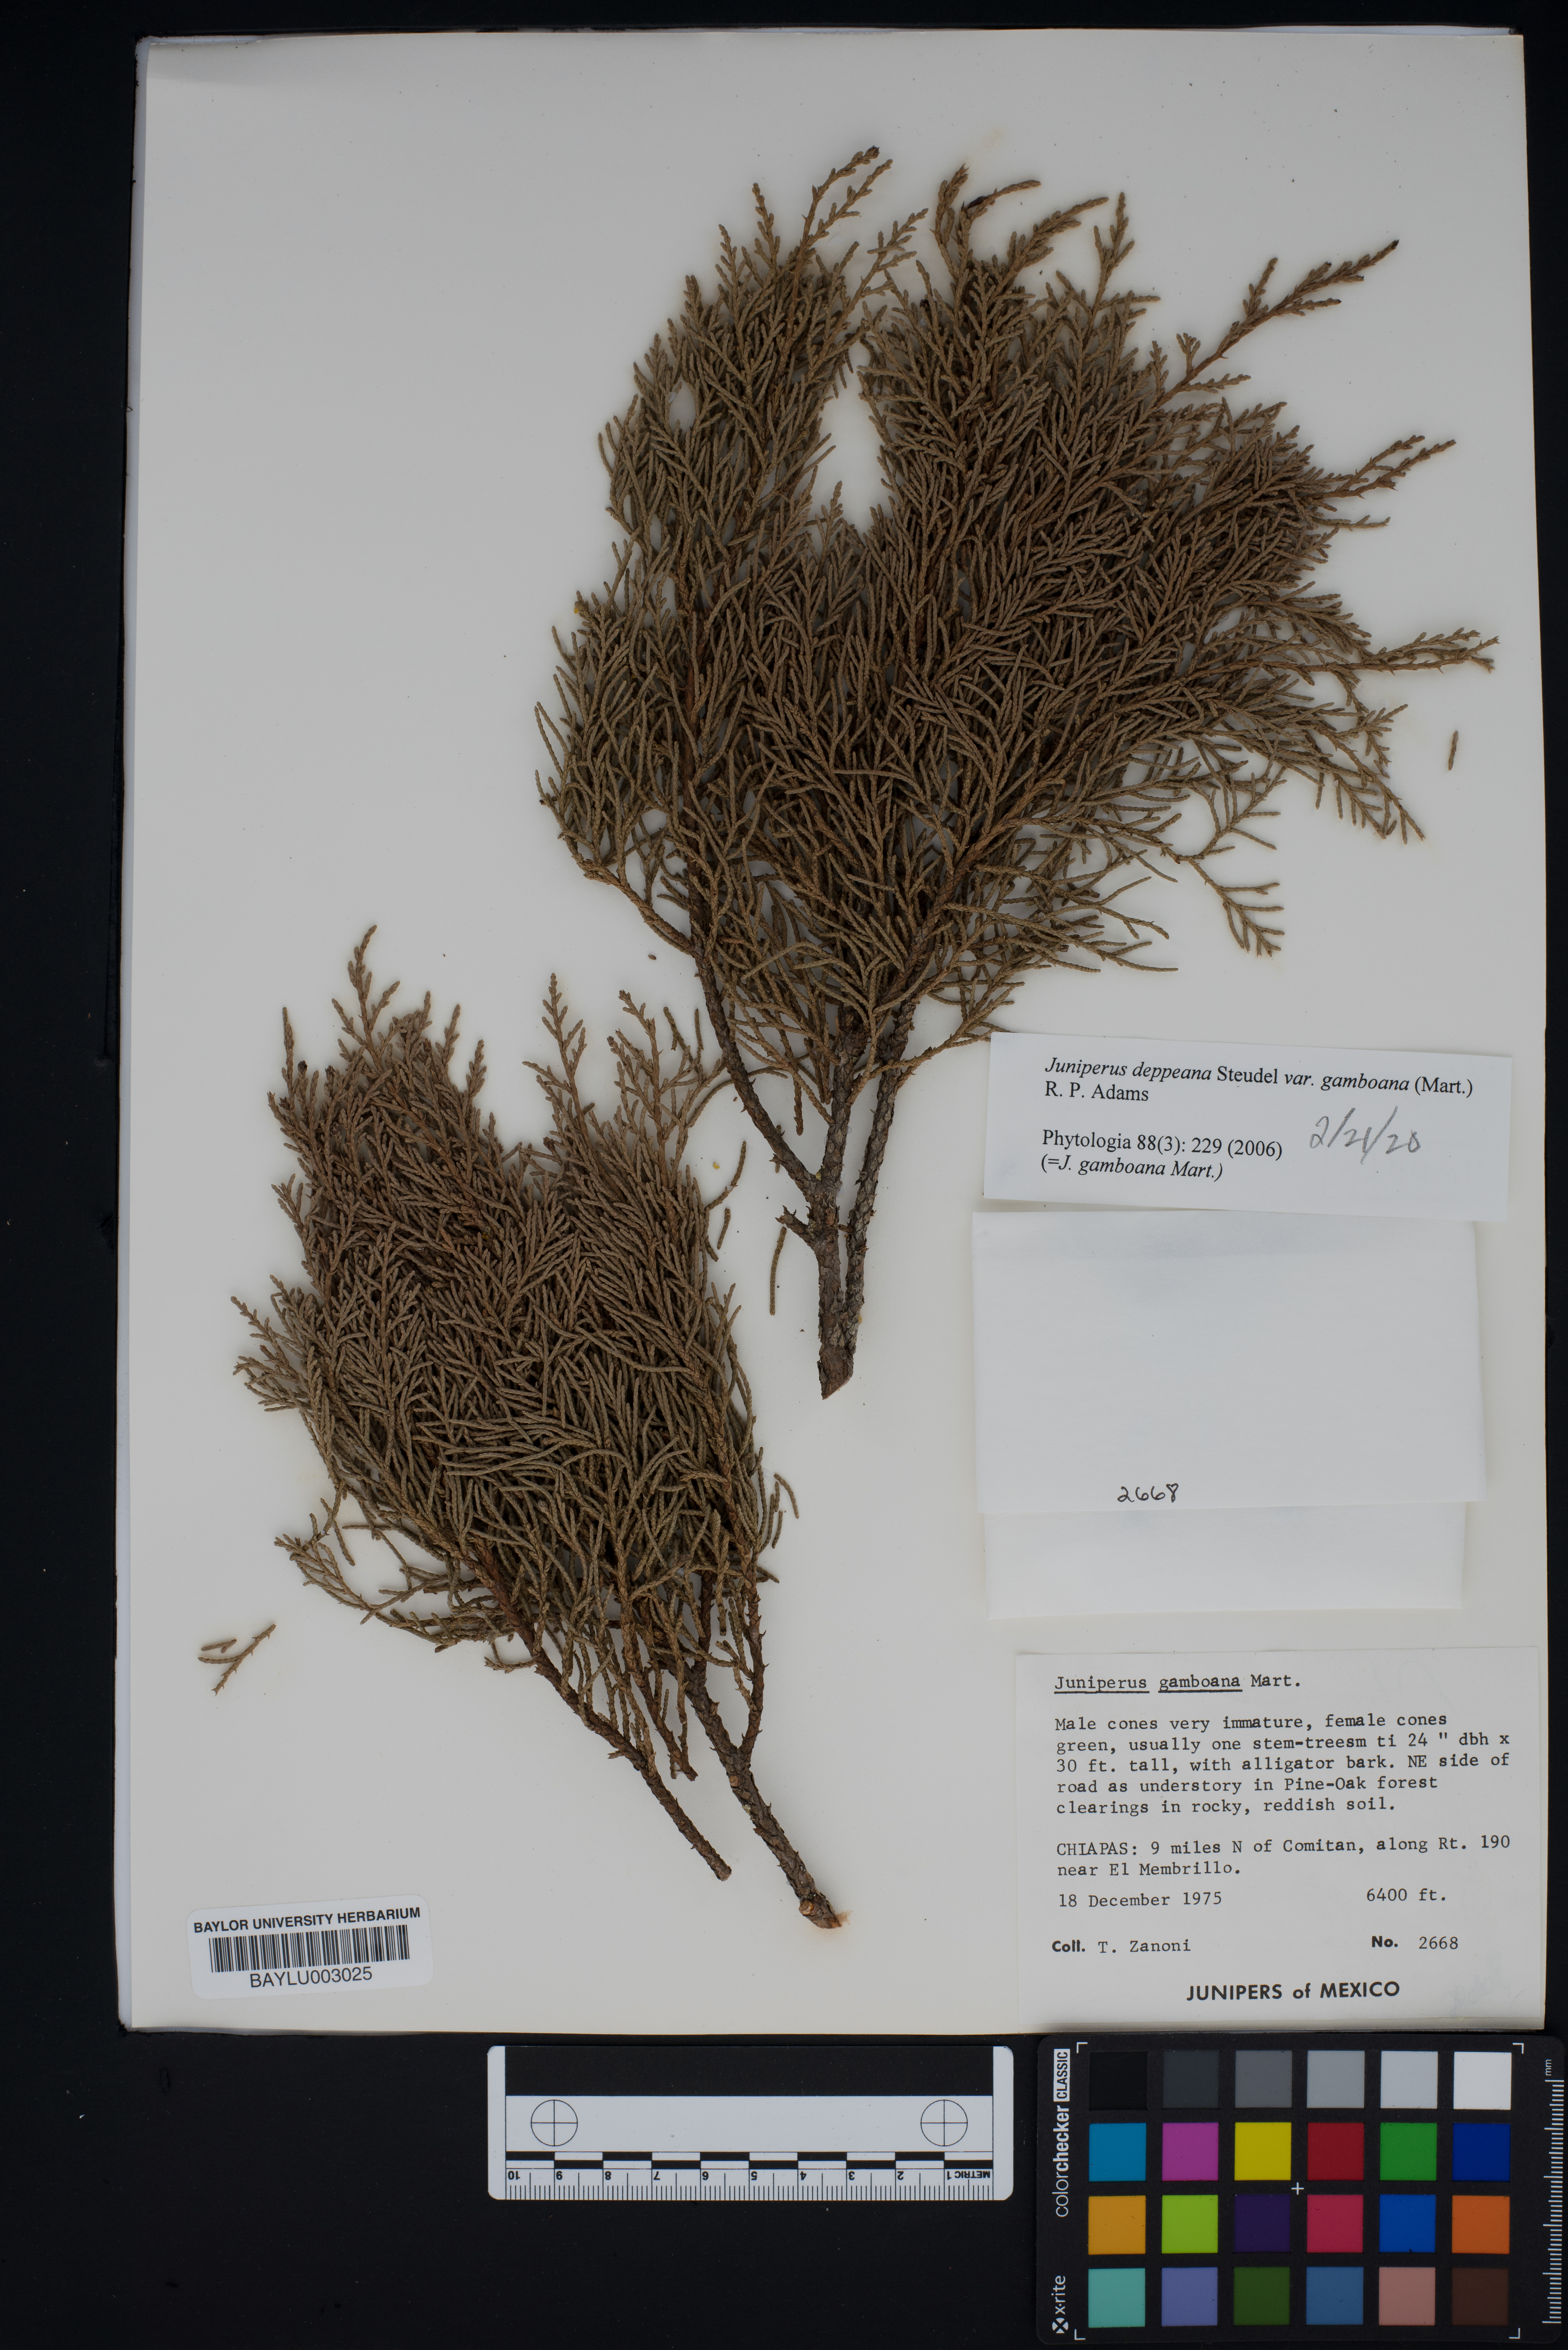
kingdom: Plantae
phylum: Tracheophyta
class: Pinopsida
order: Pinales
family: Cupressaceae
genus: Juniperus
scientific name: Juniperus gamboana
